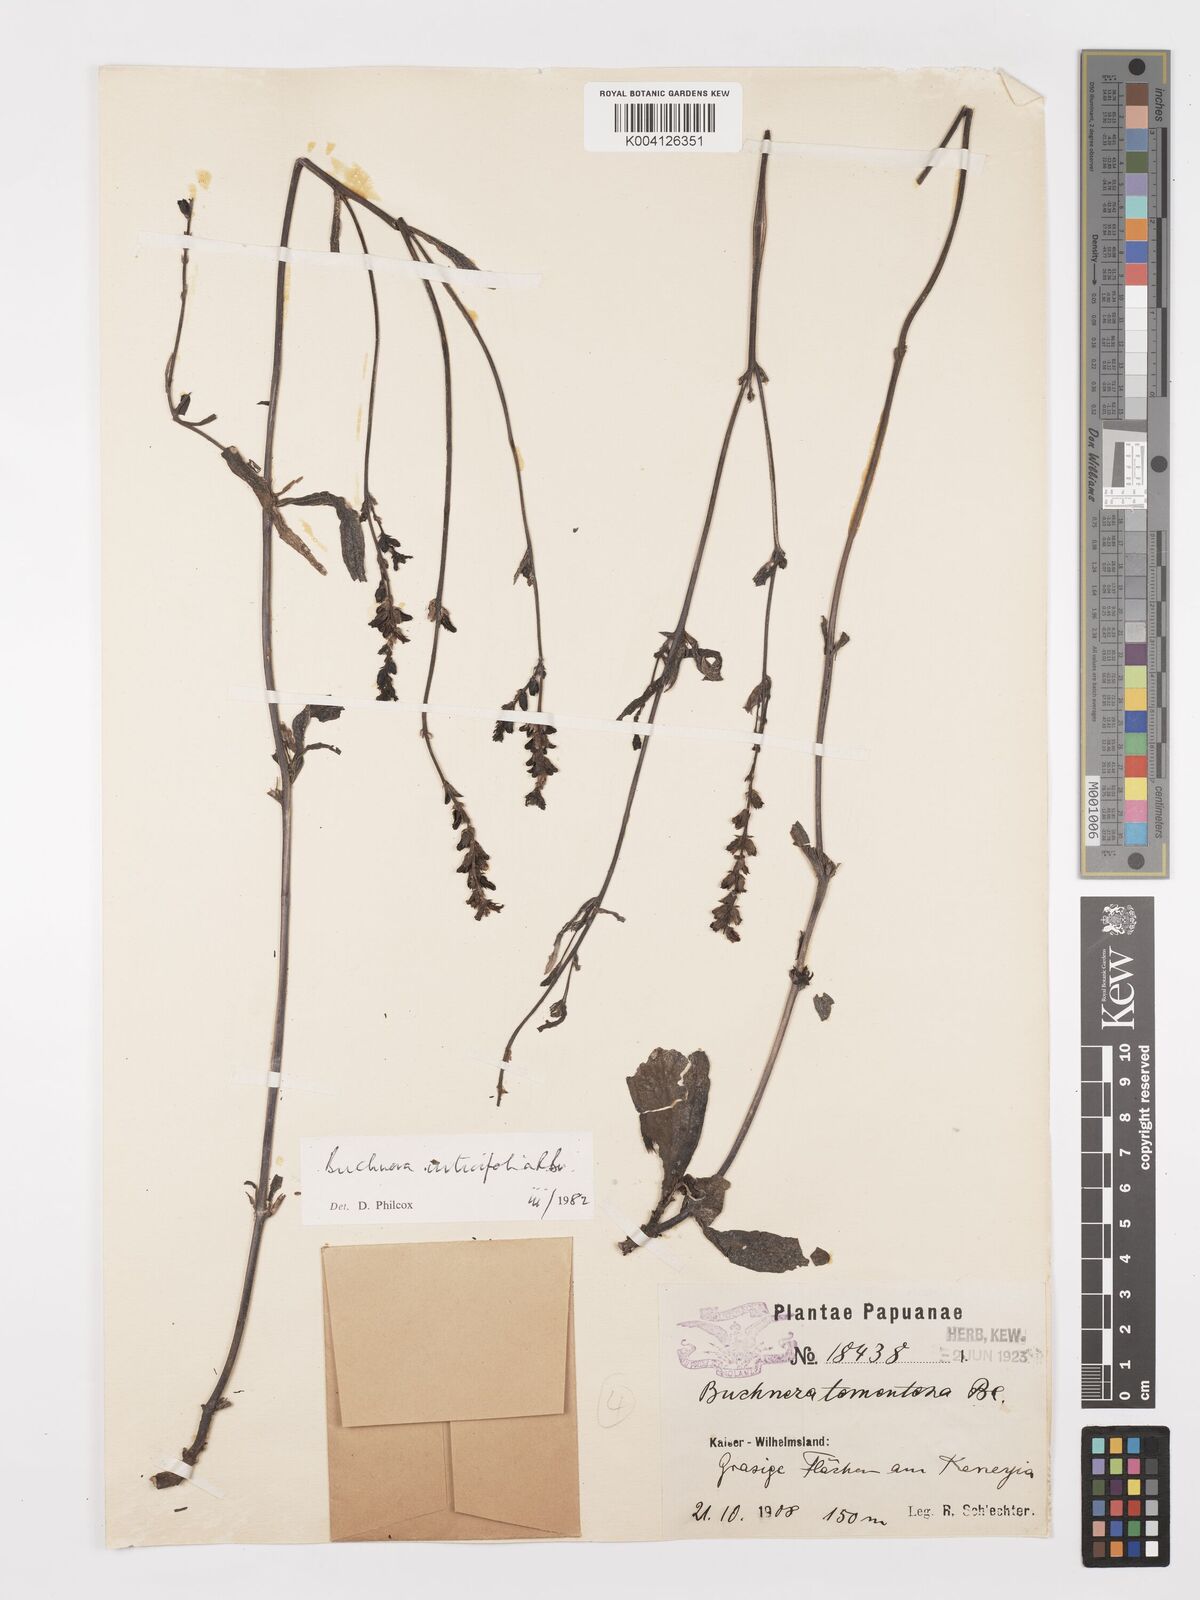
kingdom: Plantae
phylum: Tracheophyta
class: Magnoliopsida
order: Lamiales
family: Orobanchaceae
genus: Buchnera
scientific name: Buchnera urticifolia
